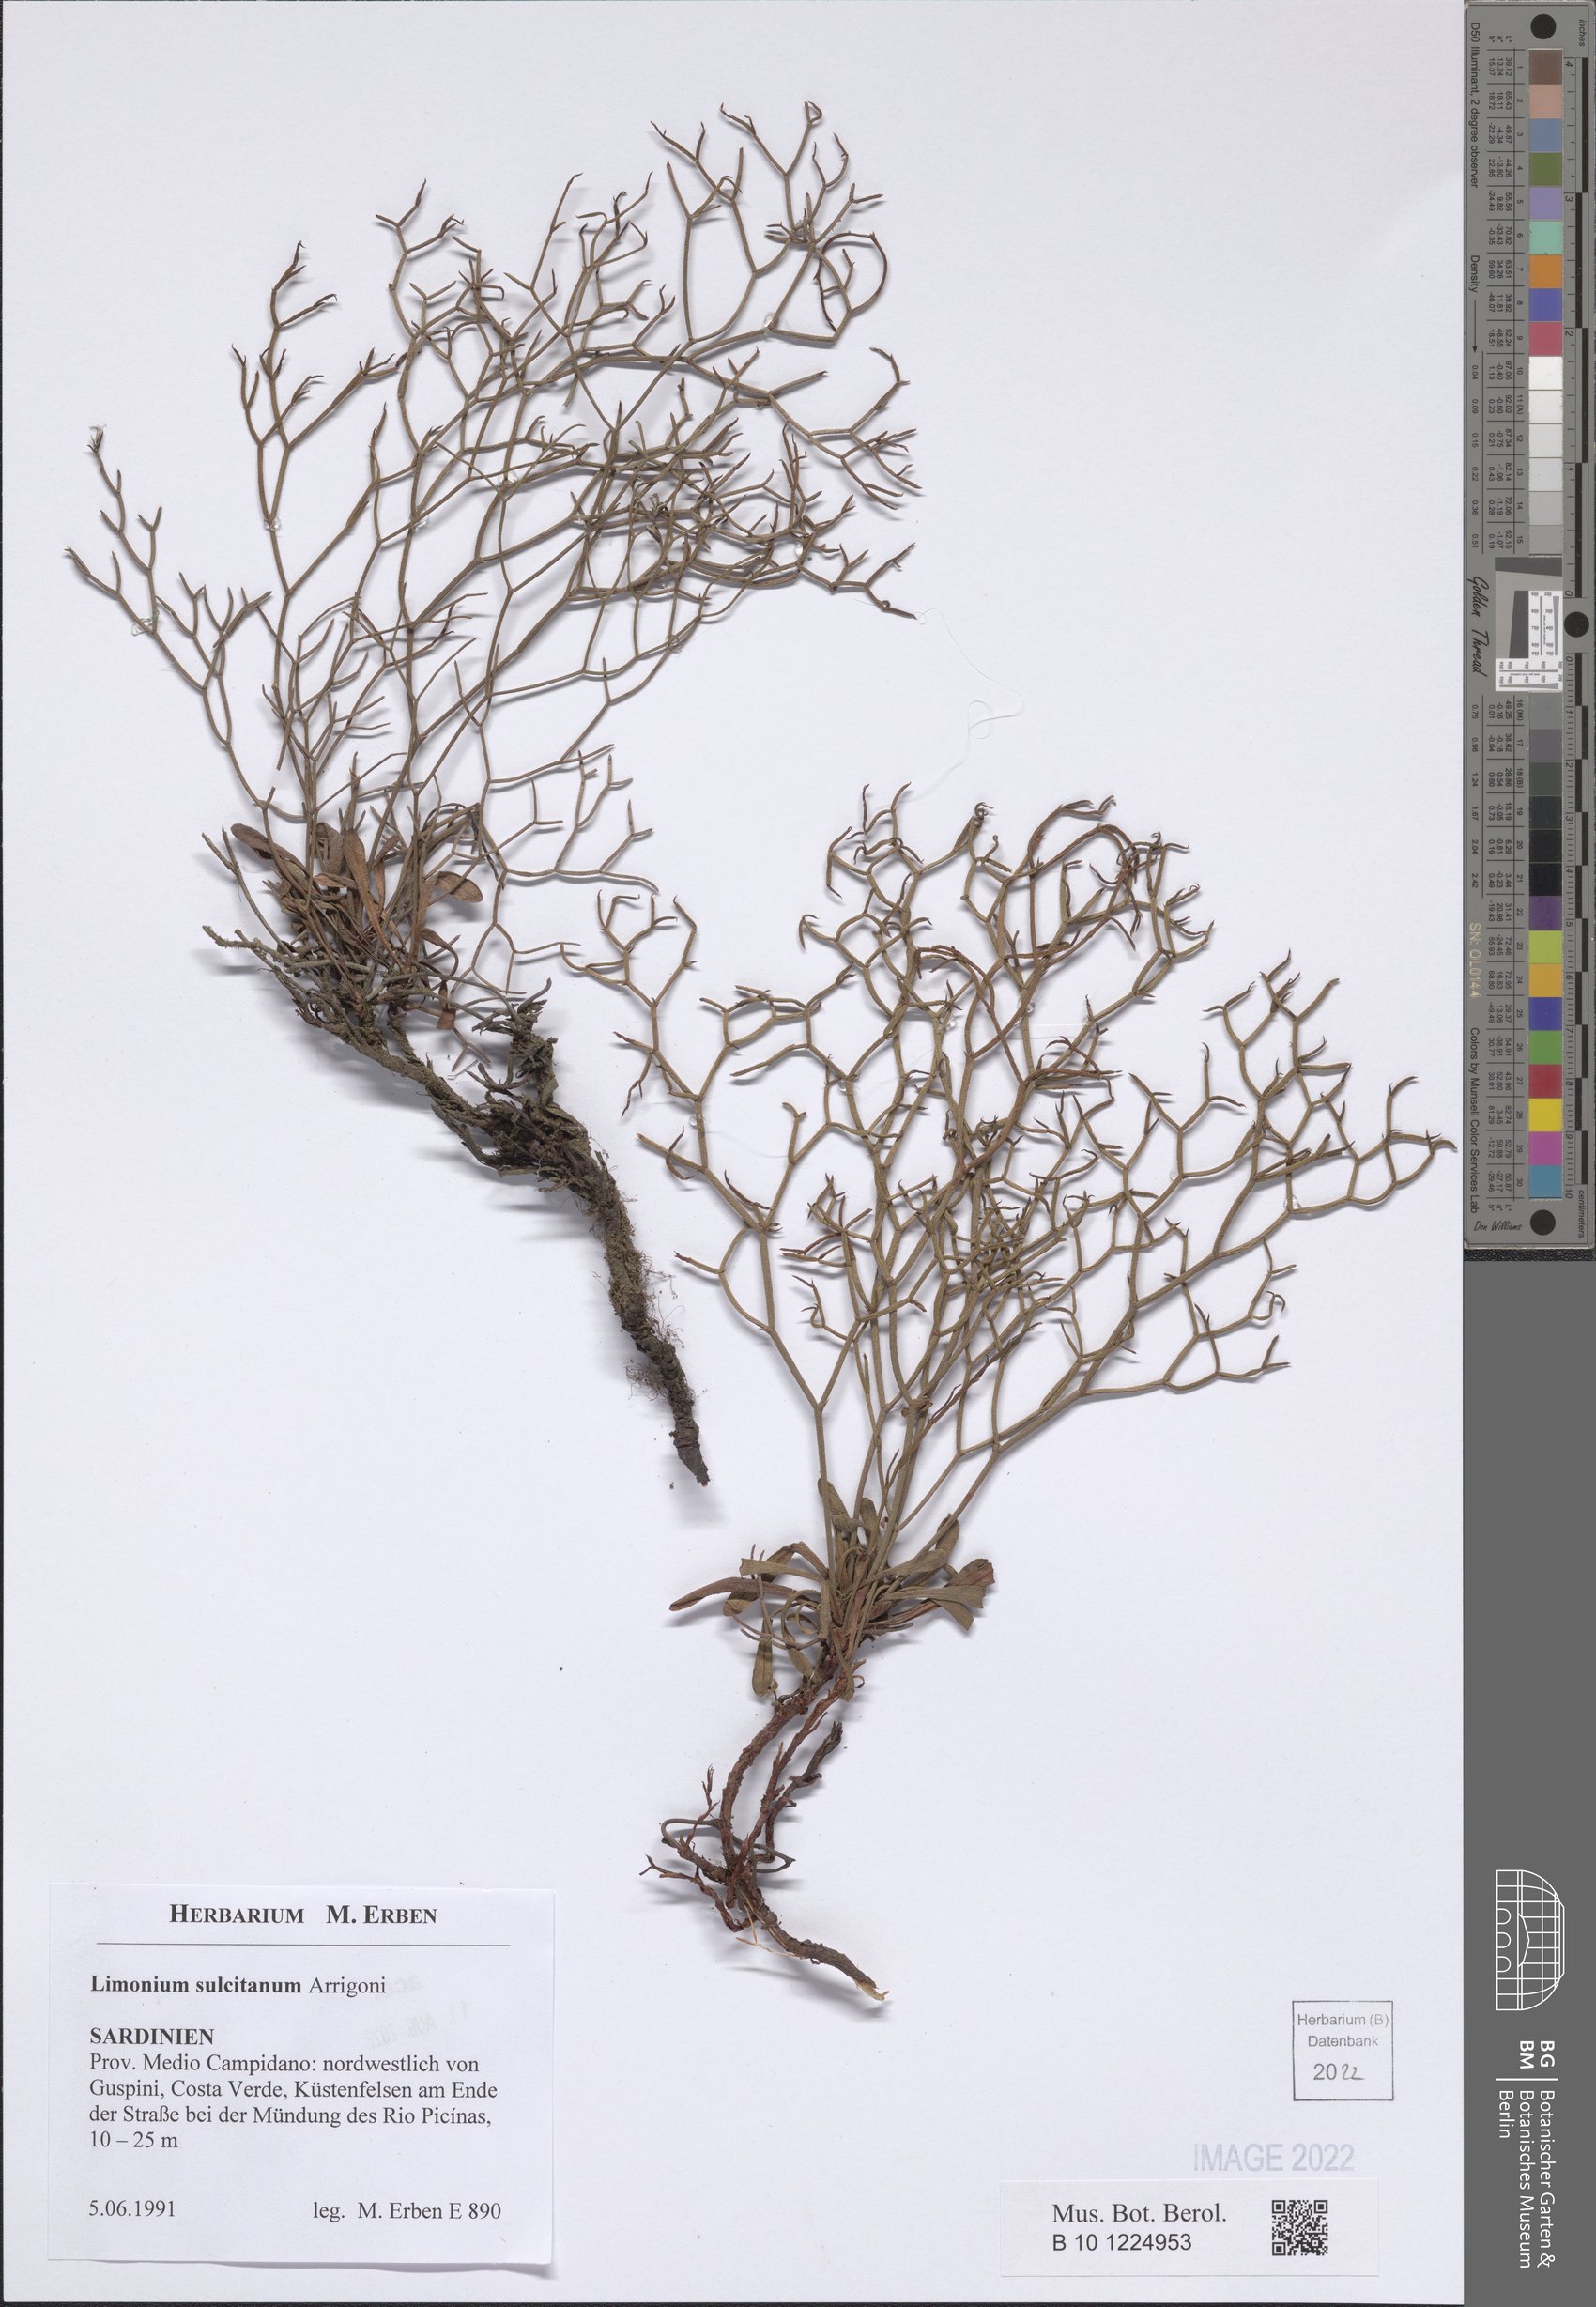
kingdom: Plantae
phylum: Tracheophyta
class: Magnoliopsida
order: Caryophyllales
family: Plumbaginaceae
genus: Limonium
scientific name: Limonium sulcitanum
